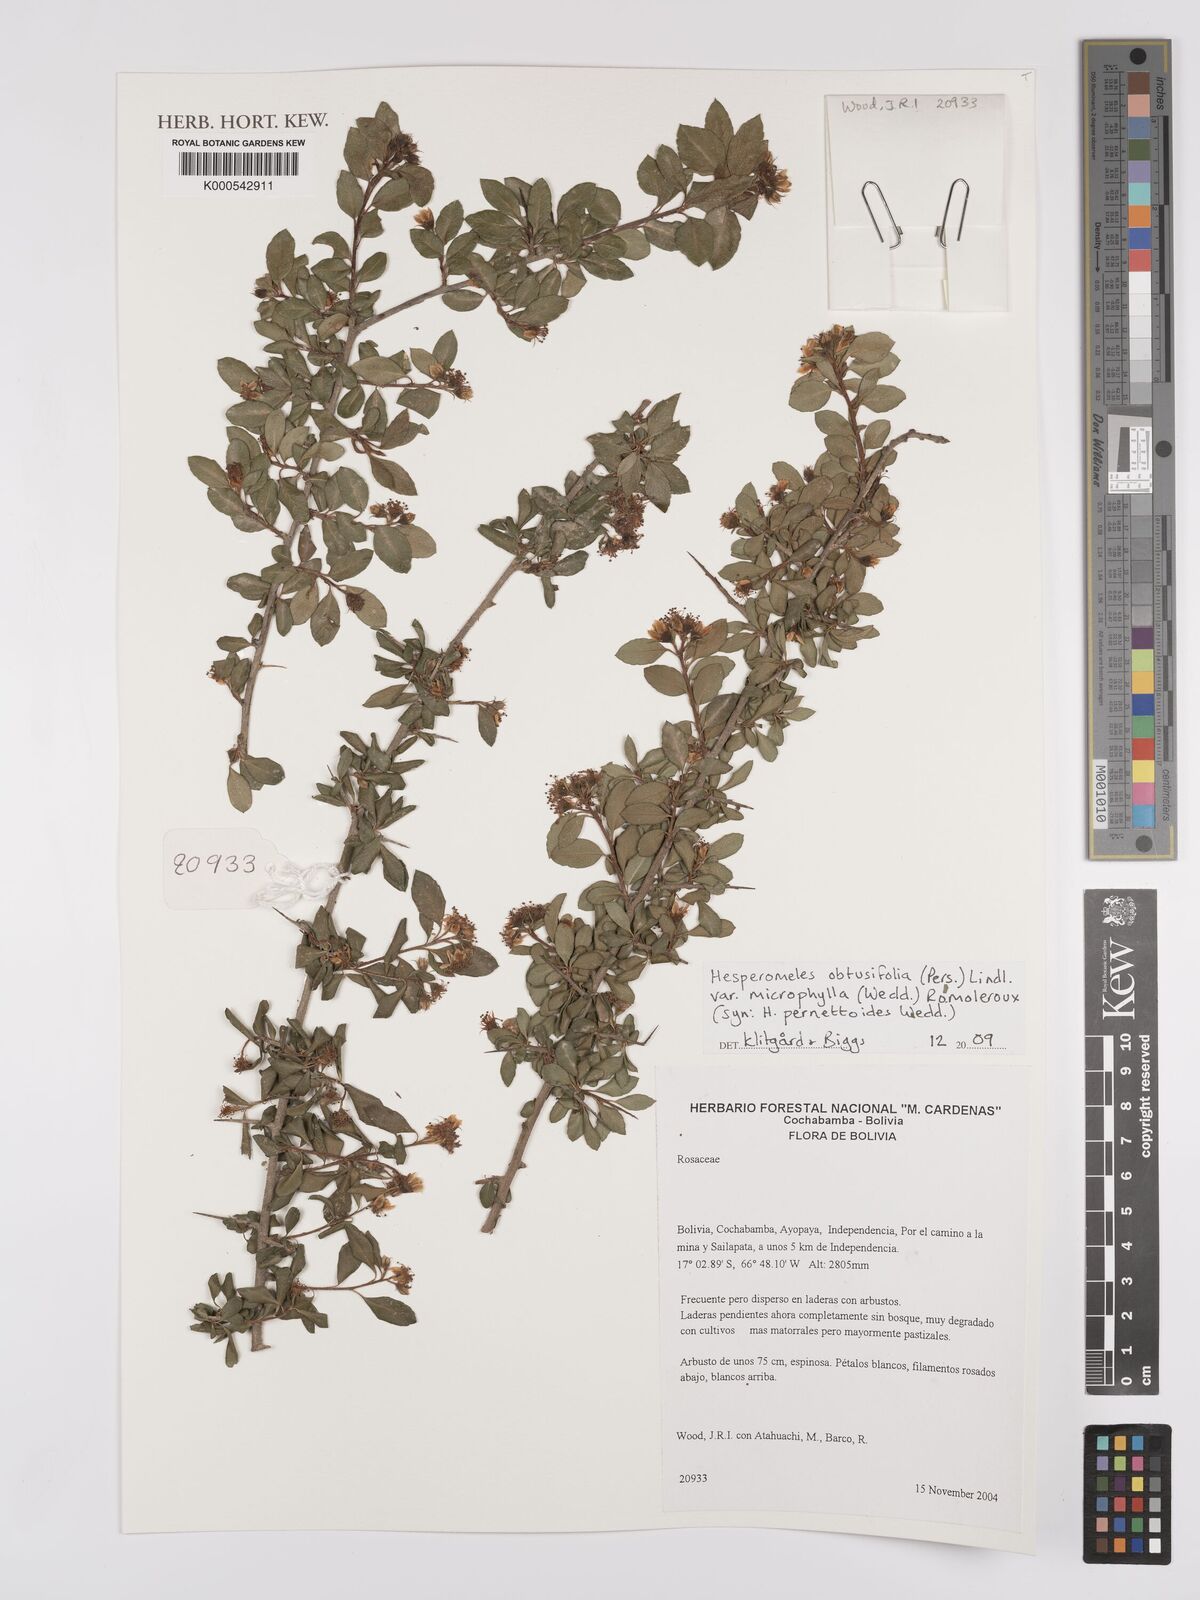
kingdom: Plantae
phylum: Tracheophyta
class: Magnoliopsida
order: Rosales
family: Rosaceae
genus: Hesperomeles
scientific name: Hesperomeles obtusifolia
